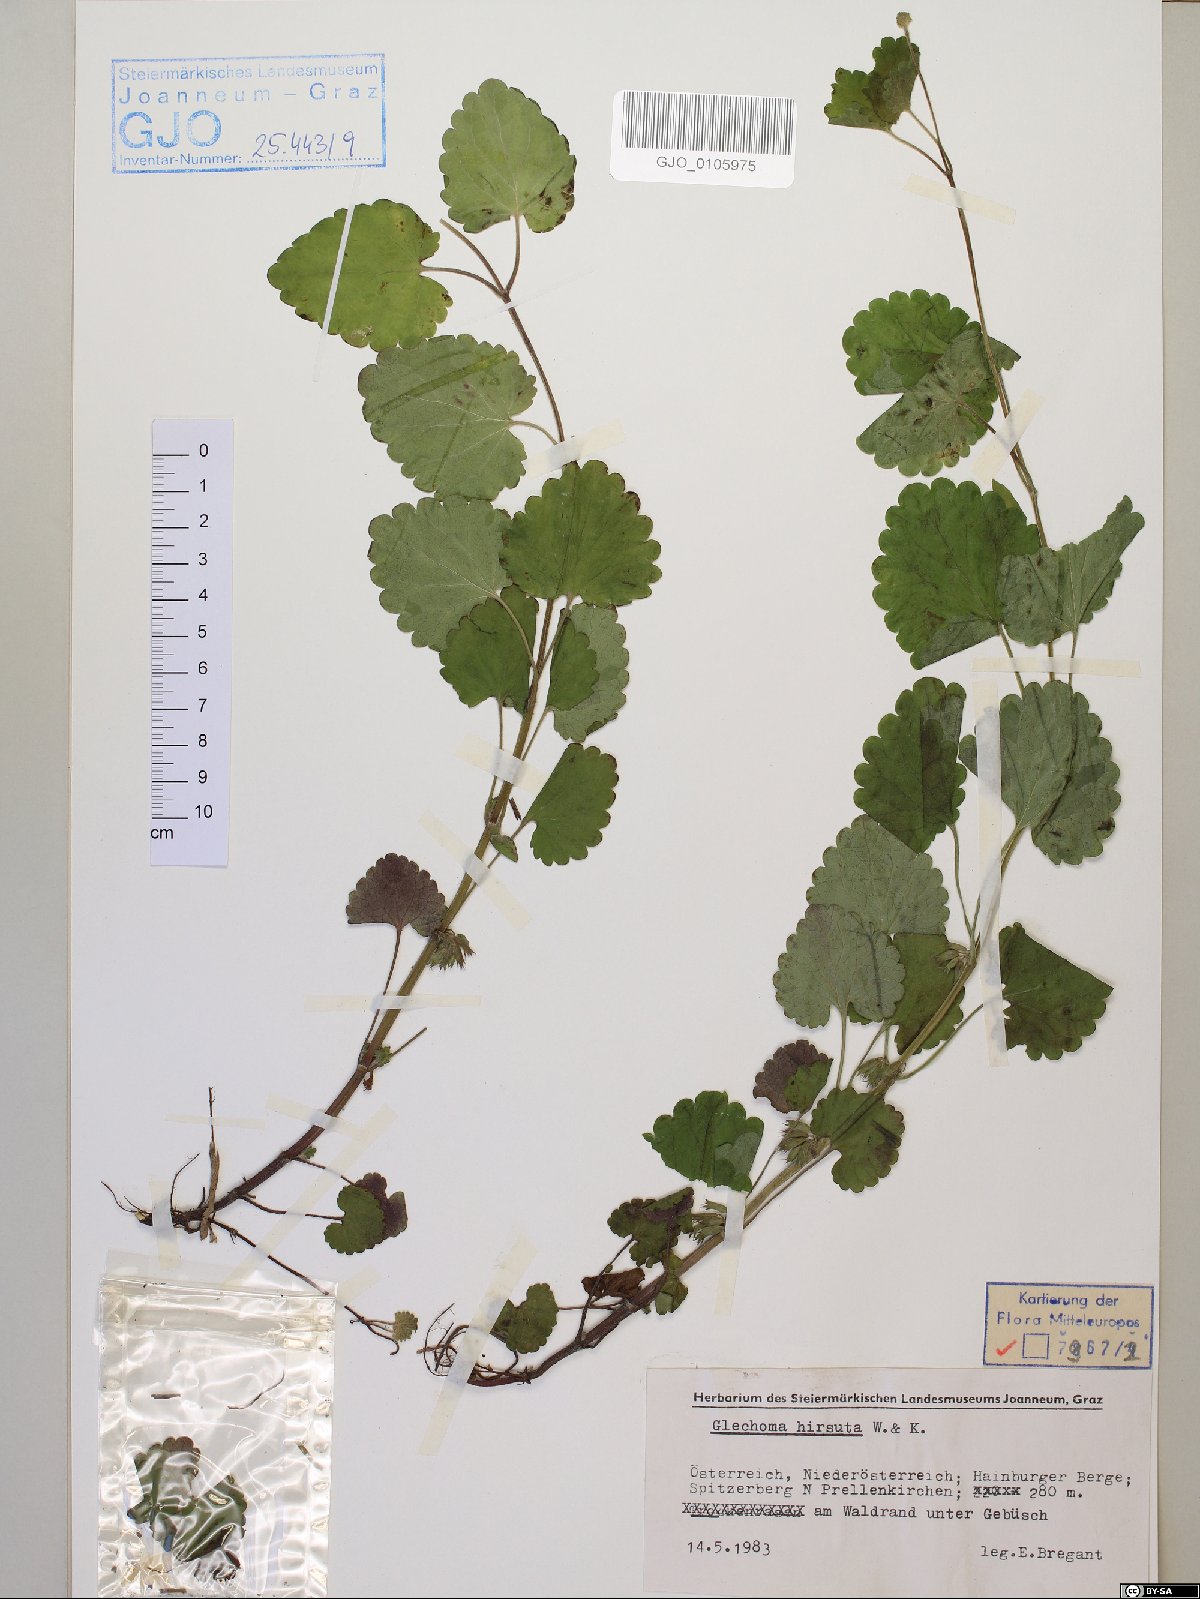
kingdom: Plantae
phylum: Tracheophyta
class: Magnoliopsida
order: Lamiales
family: Lamiaceae
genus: Glechoma
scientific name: Glechoma hirsuta
